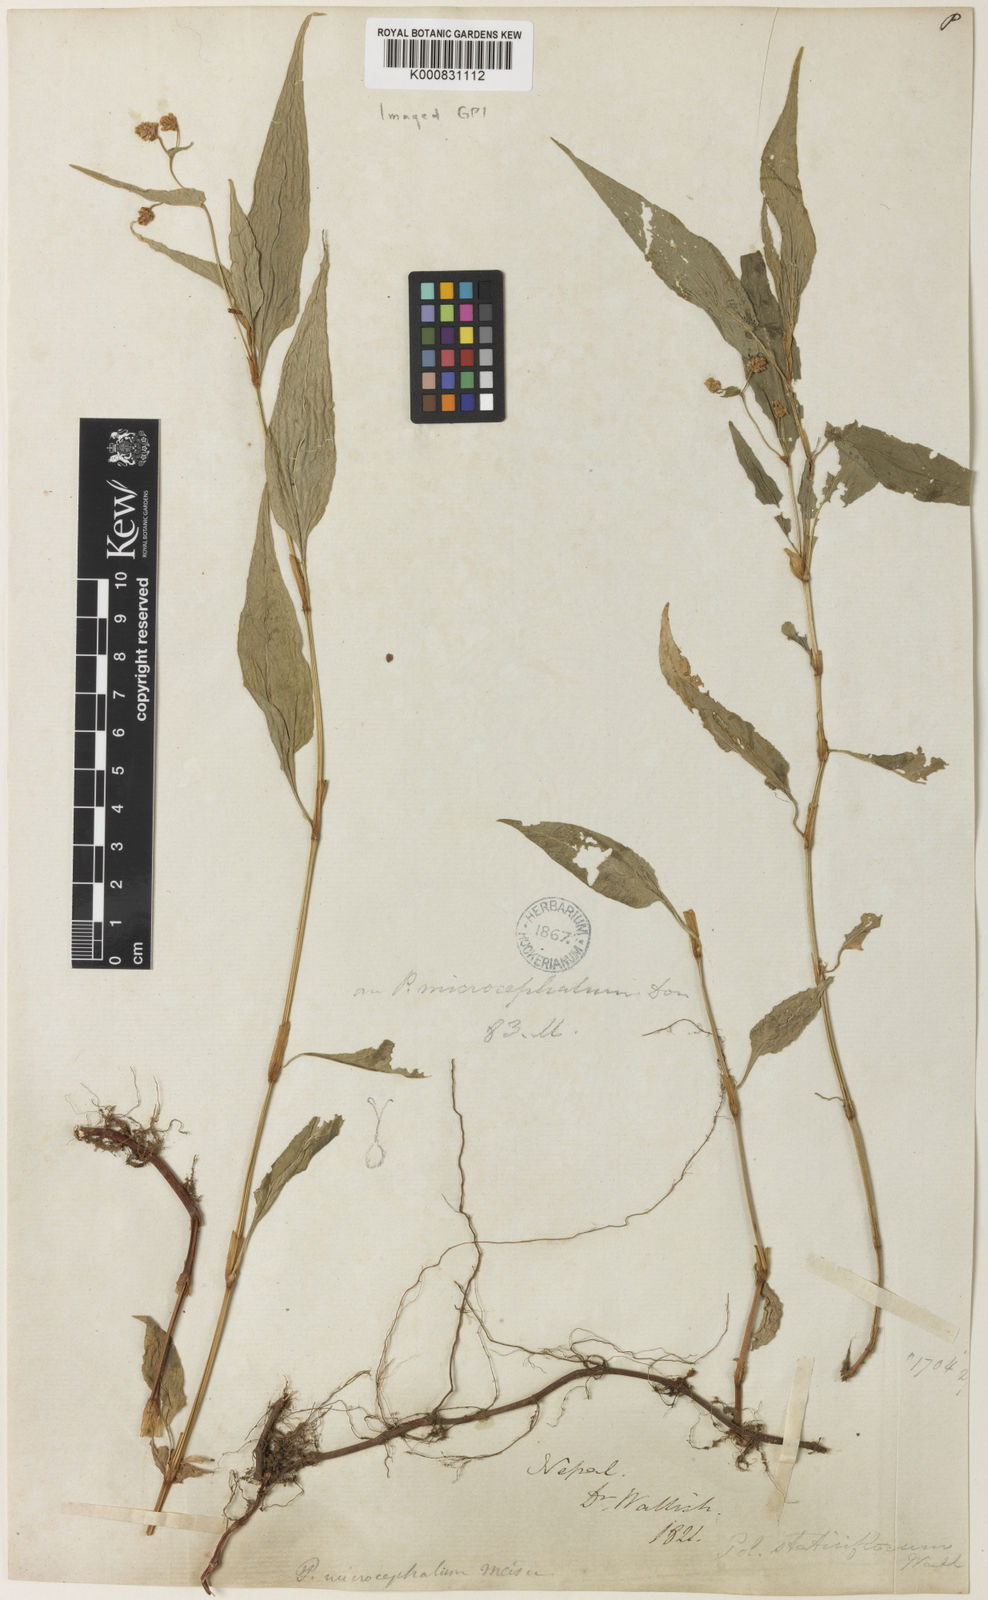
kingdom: Plantae
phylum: Tracheophyta
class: Magnoliopsida
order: Caryophyllales
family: Polygonaceae
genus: Persicaria
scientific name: Persicaria microcephala
